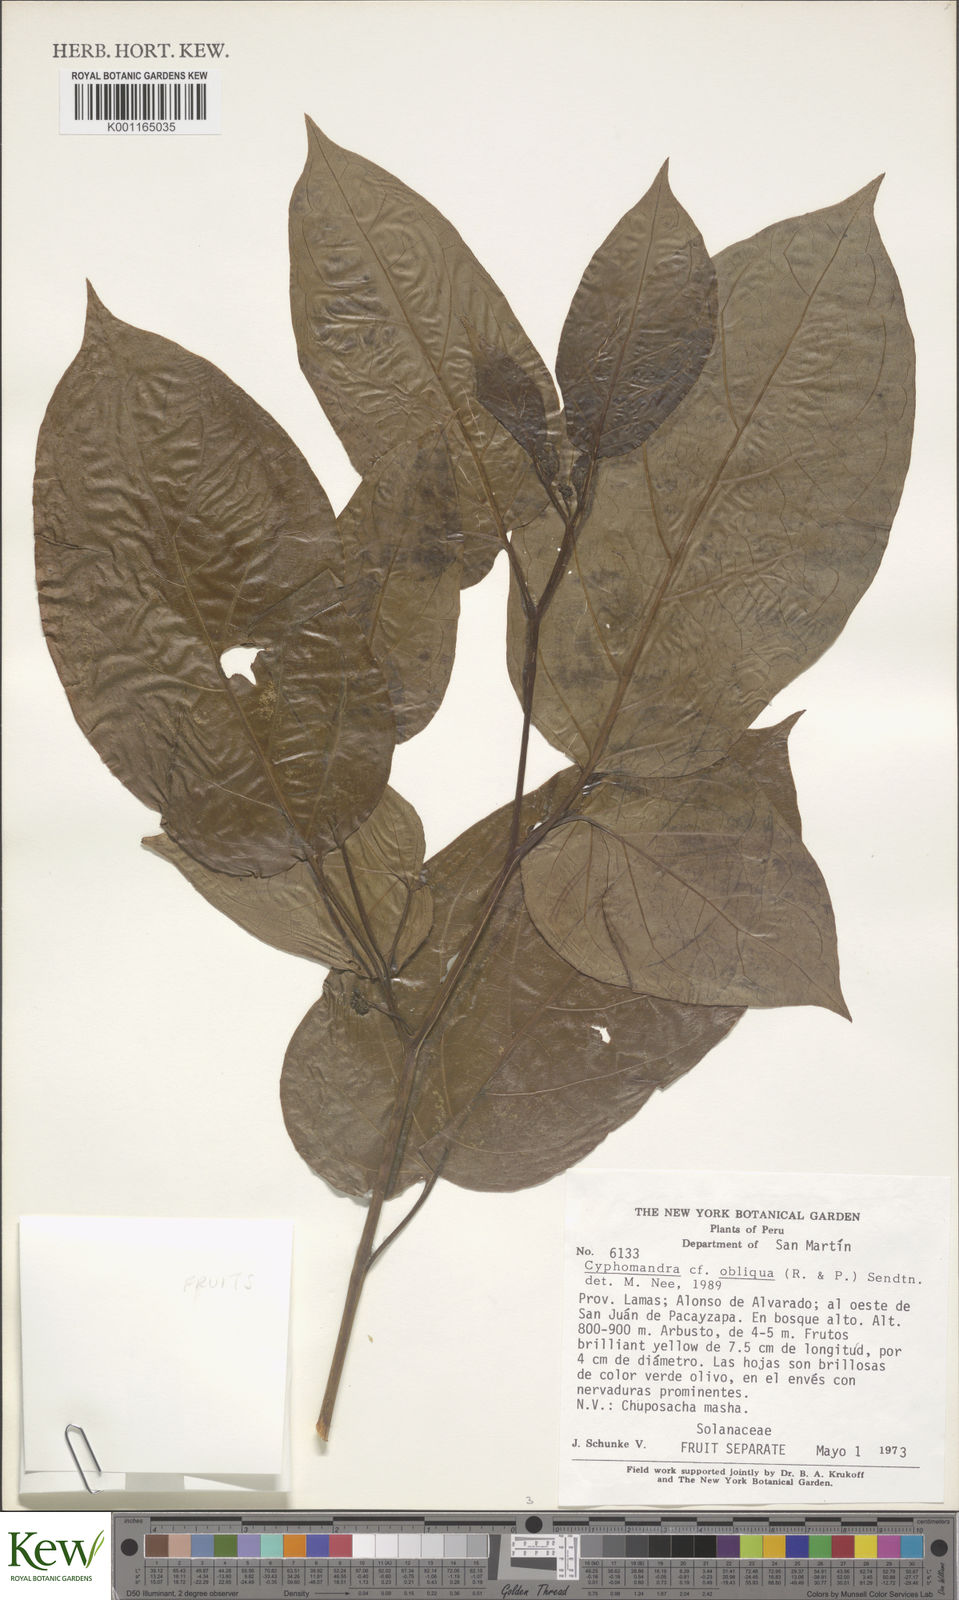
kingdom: Plantae
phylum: Tracheophyta
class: Magnoliopsida
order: Solanales
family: Solanaceae
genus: Solanum
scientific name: Solanum obliquum
